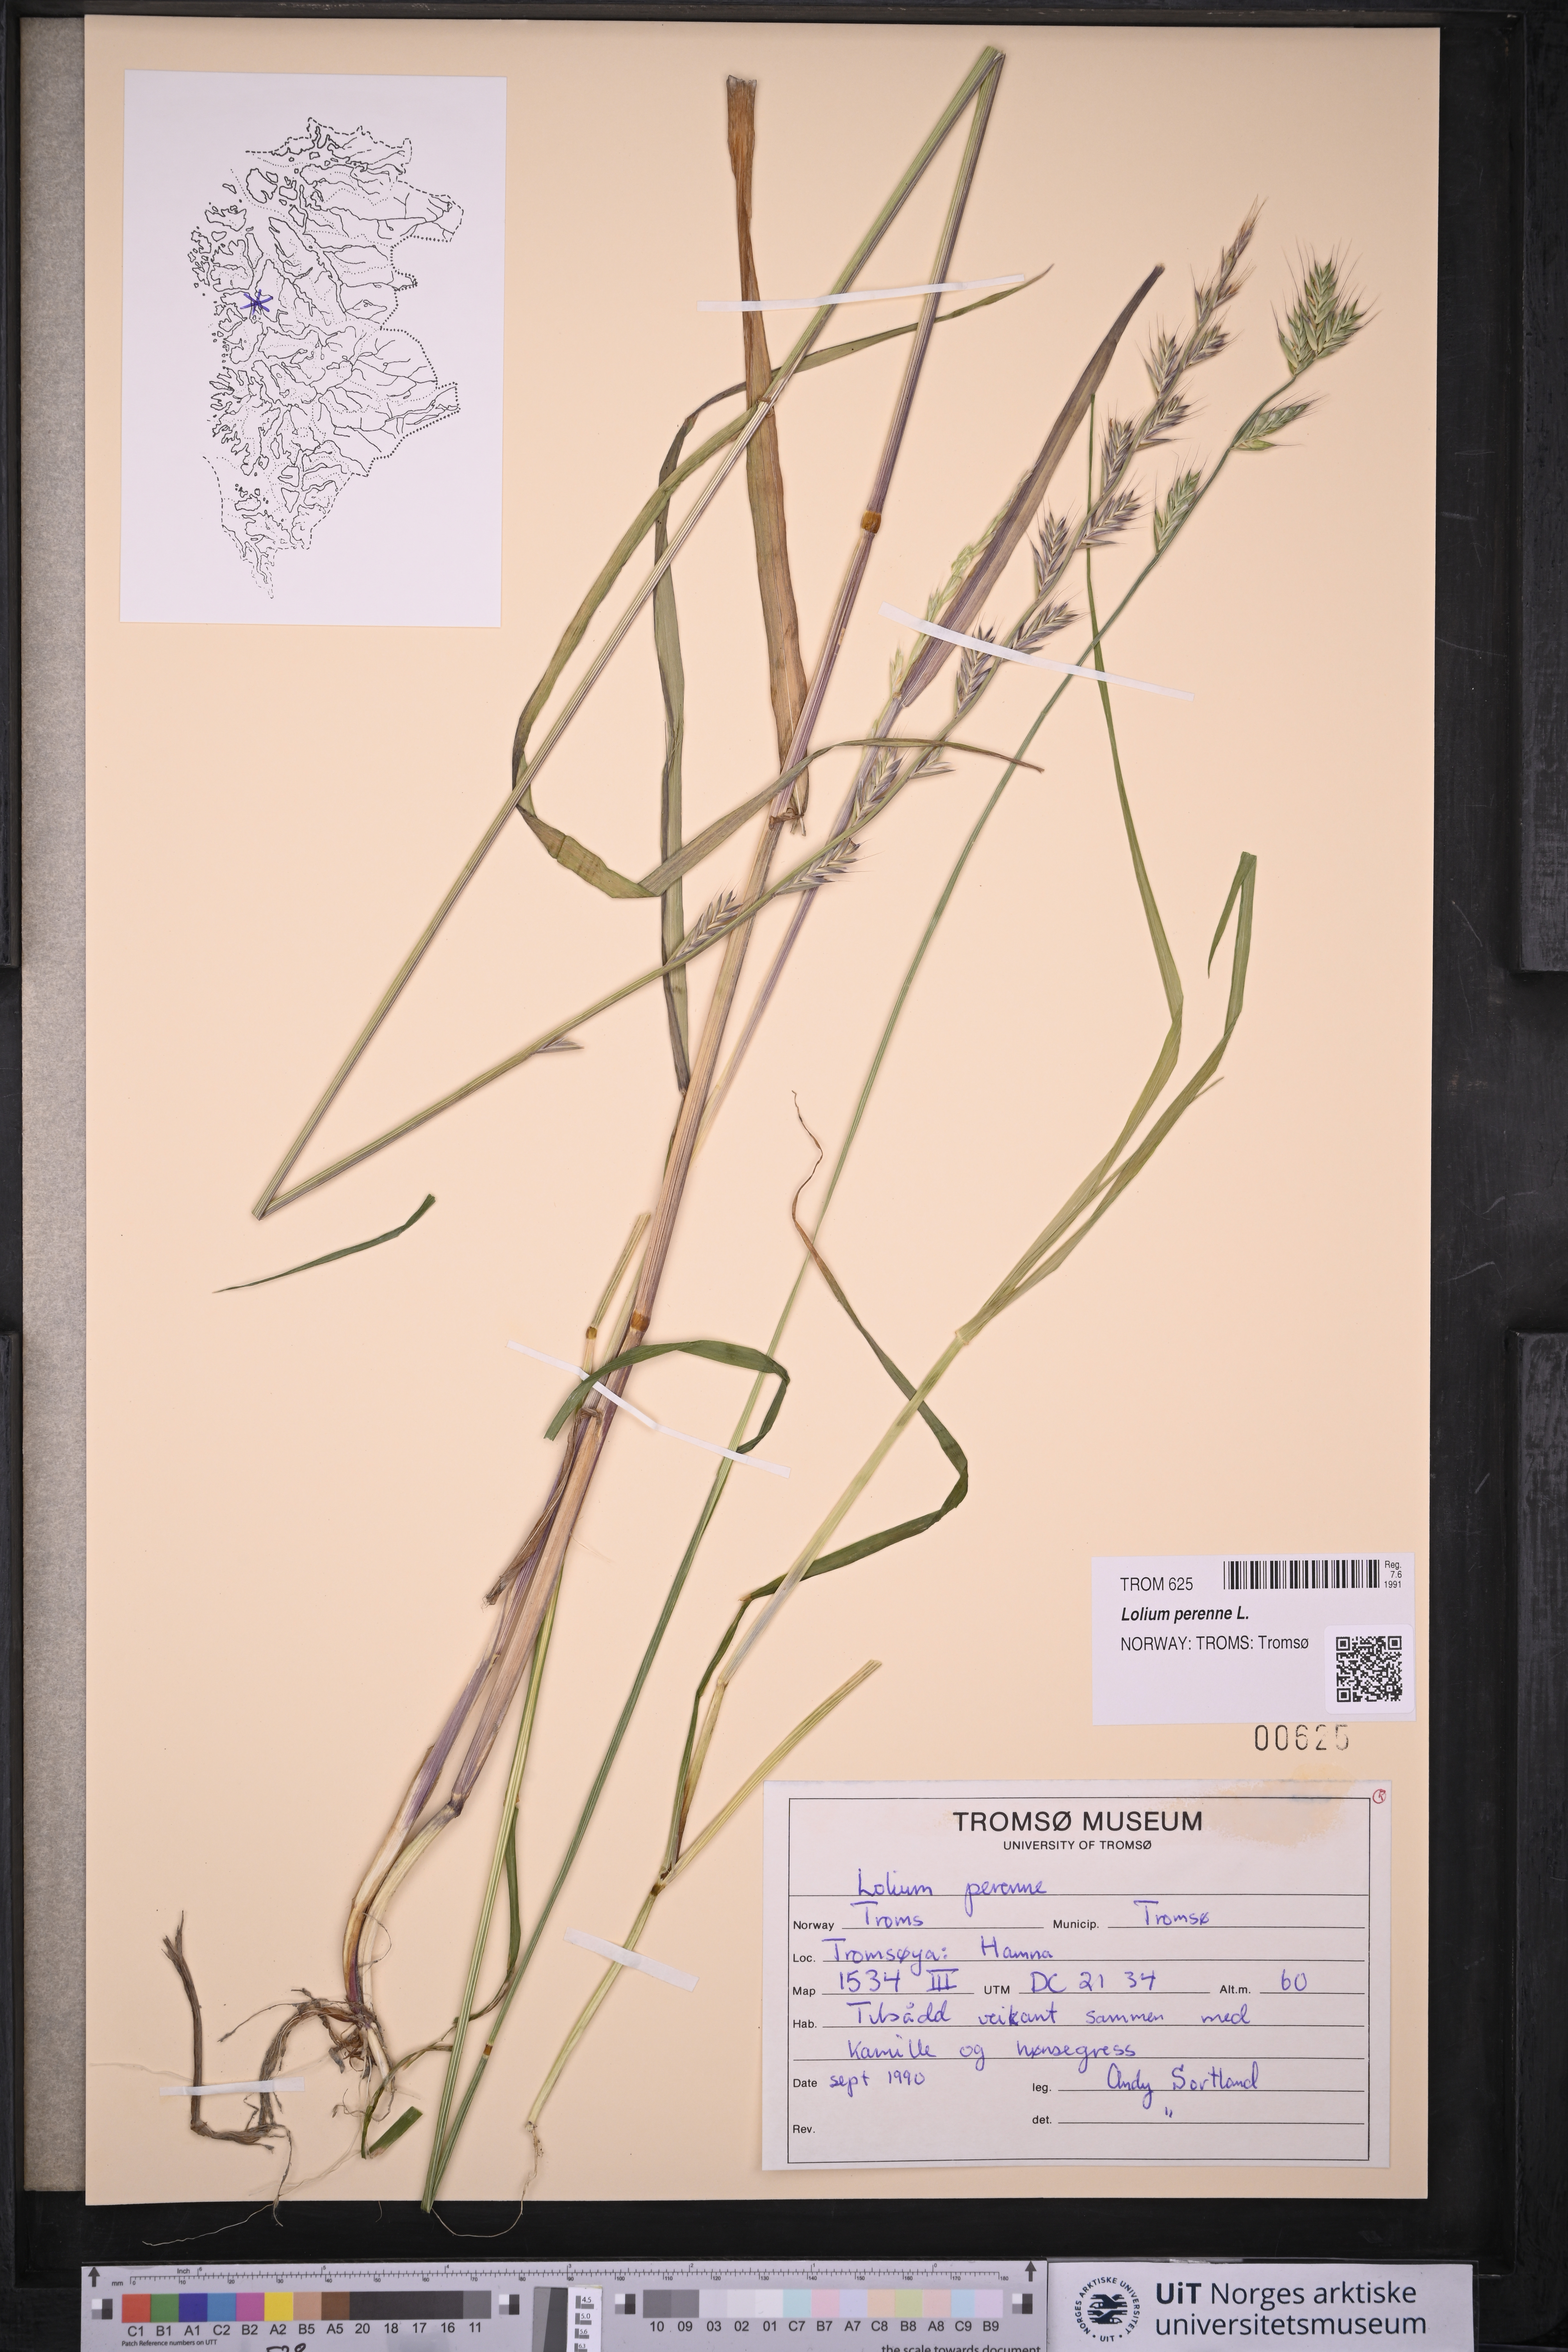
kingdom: Plantae
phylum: Tracheophyta
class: Liliopsida
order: Poales
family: Poaceae
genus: Lolium
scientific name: Lolium perenne
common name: Perennial ryegrass
